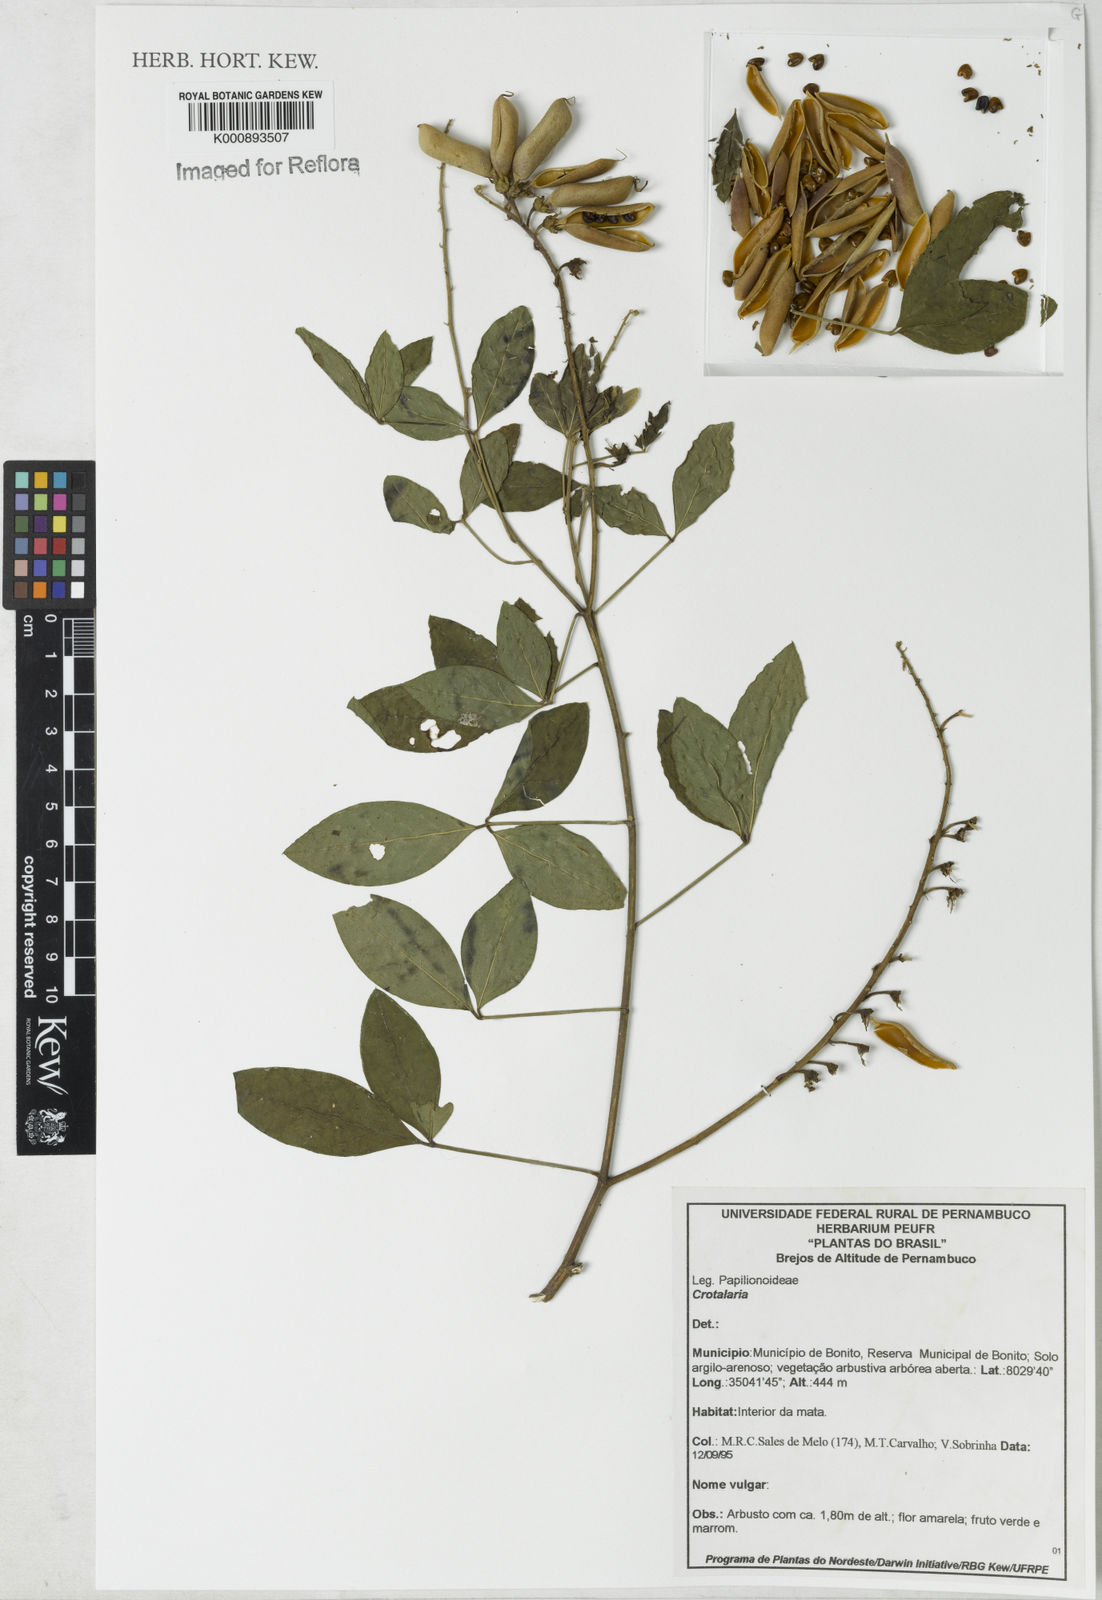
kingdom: Plantae
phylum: Tracheophyta
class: Magnoliopsida
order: Fabales
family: Fabaceae
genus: Crotalaria
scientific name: Crotalaria vitellina
